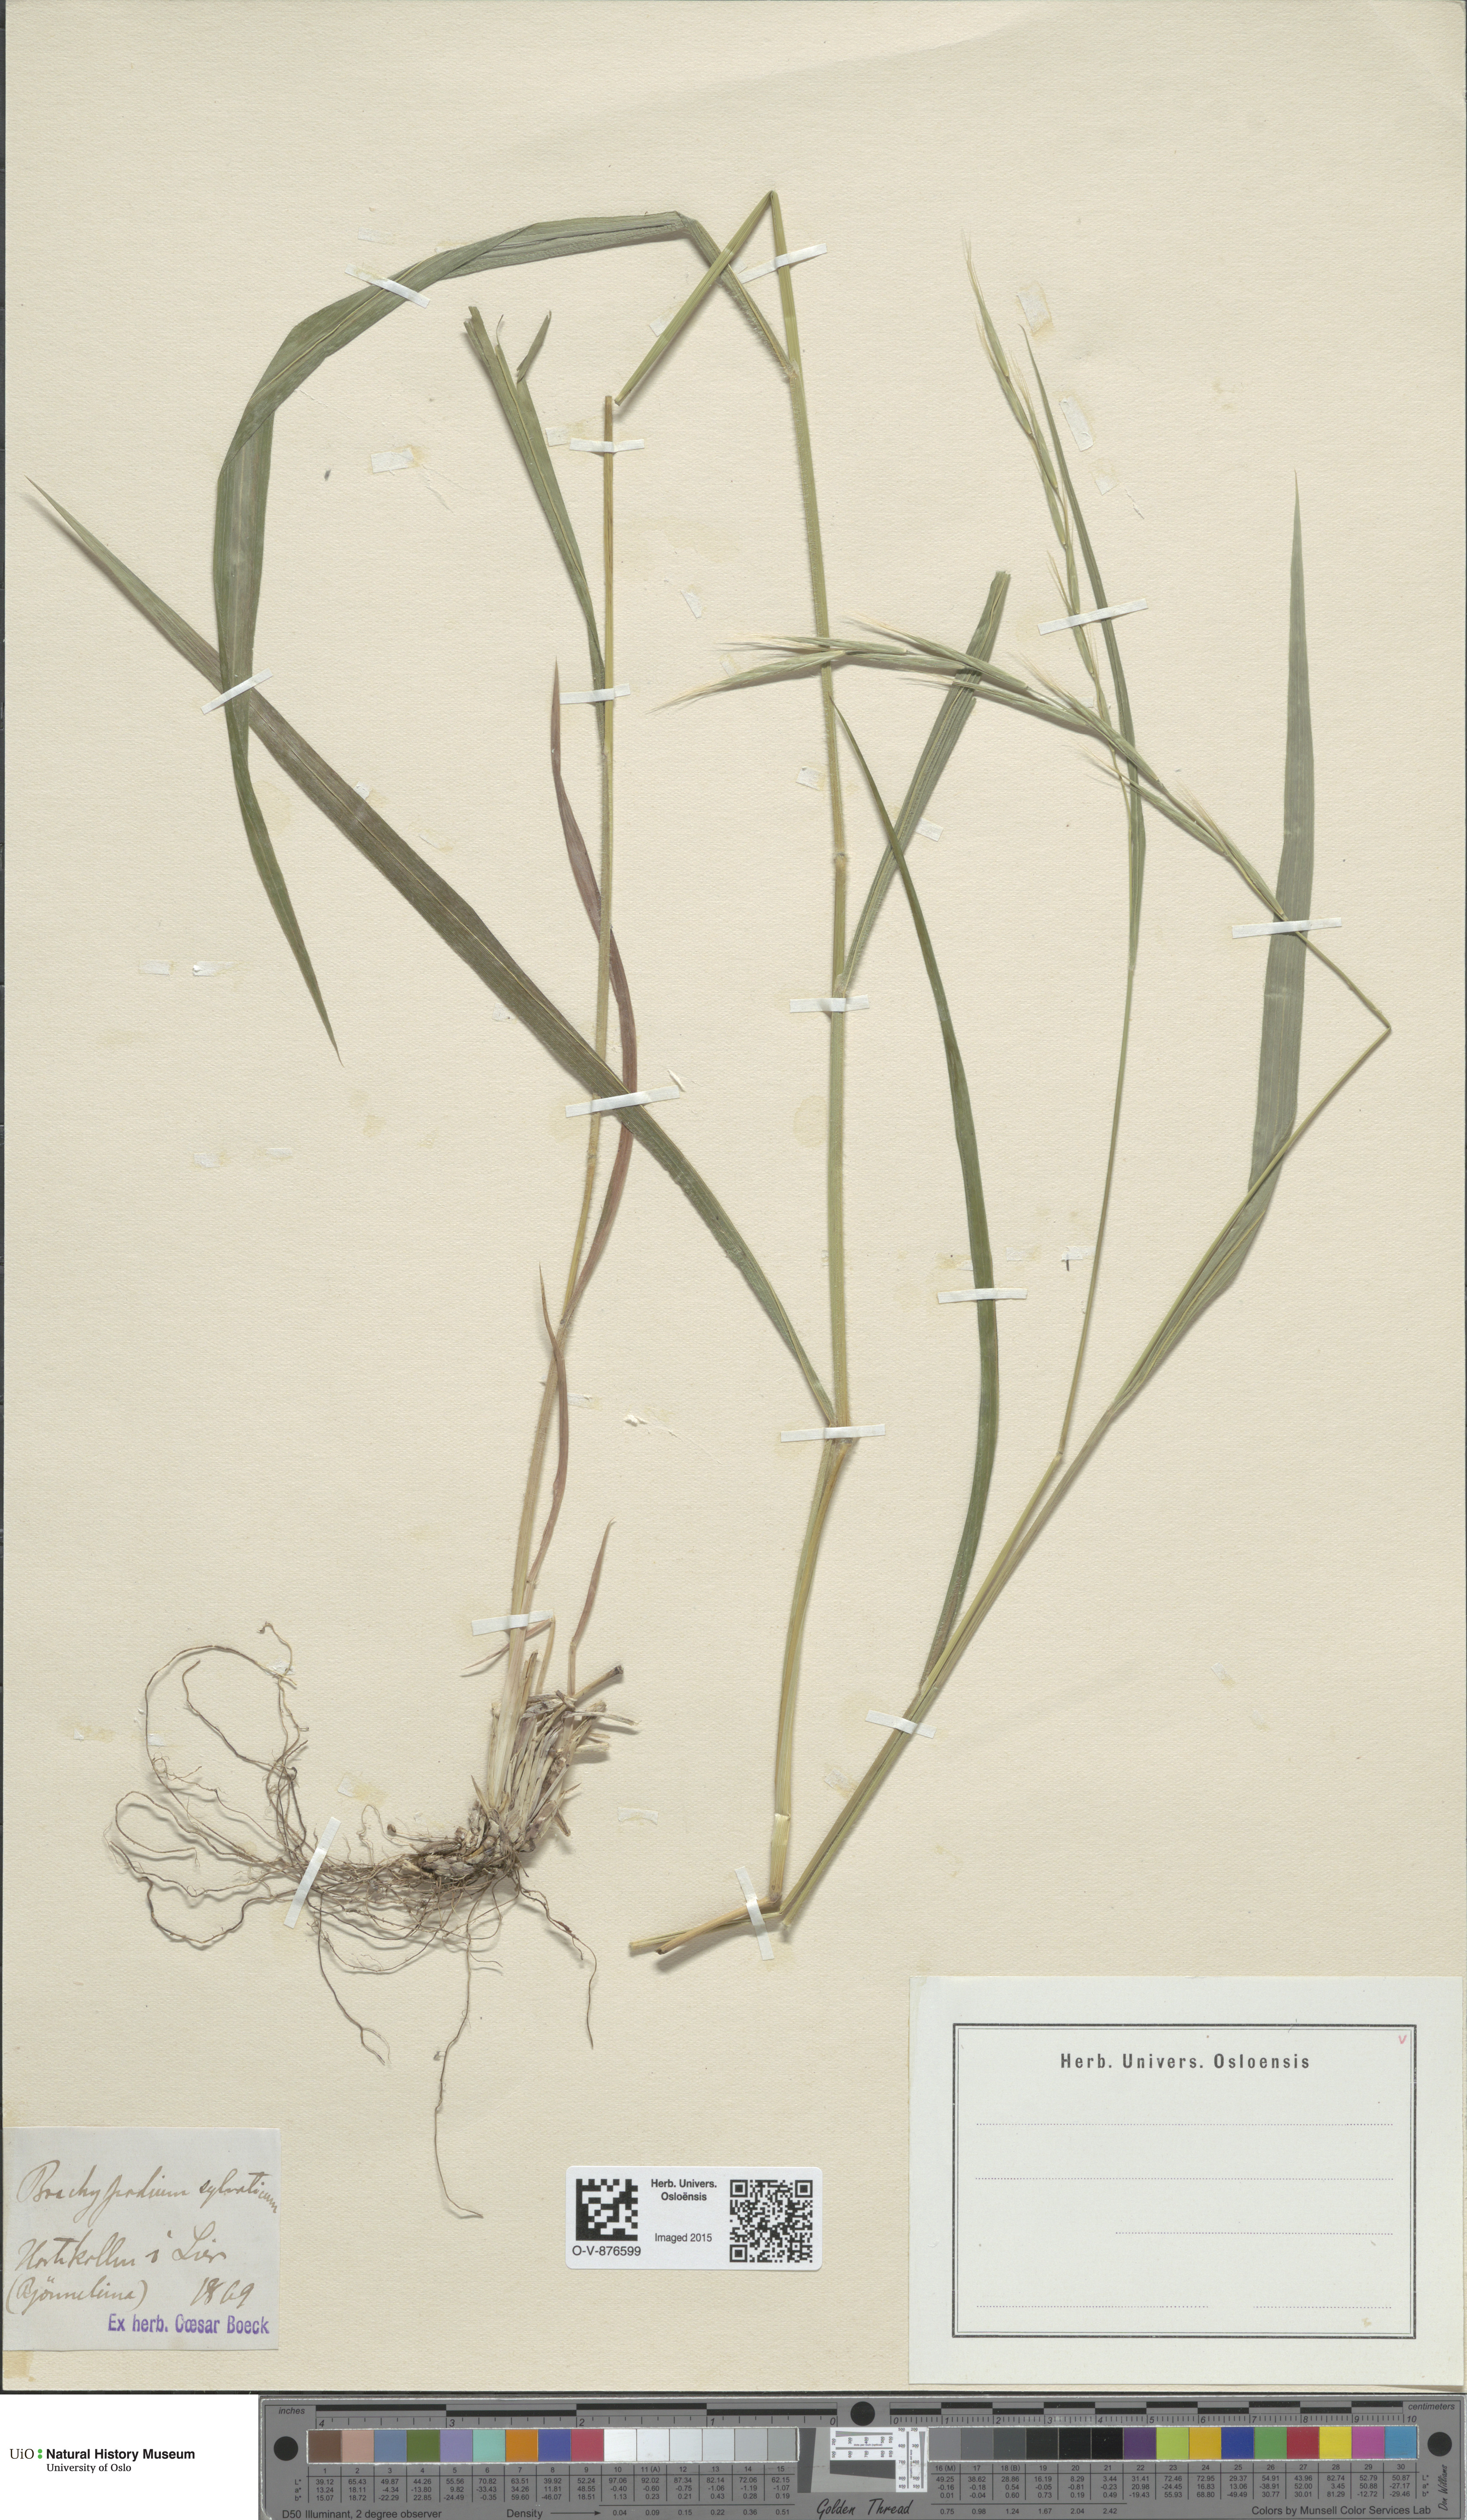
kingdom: Plantae
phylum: Tracheophyta
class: Liliopsida
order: Poales
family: Poaceae
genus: Brachypodium
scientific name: Brachypodium sylvaticum
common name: False-brome
